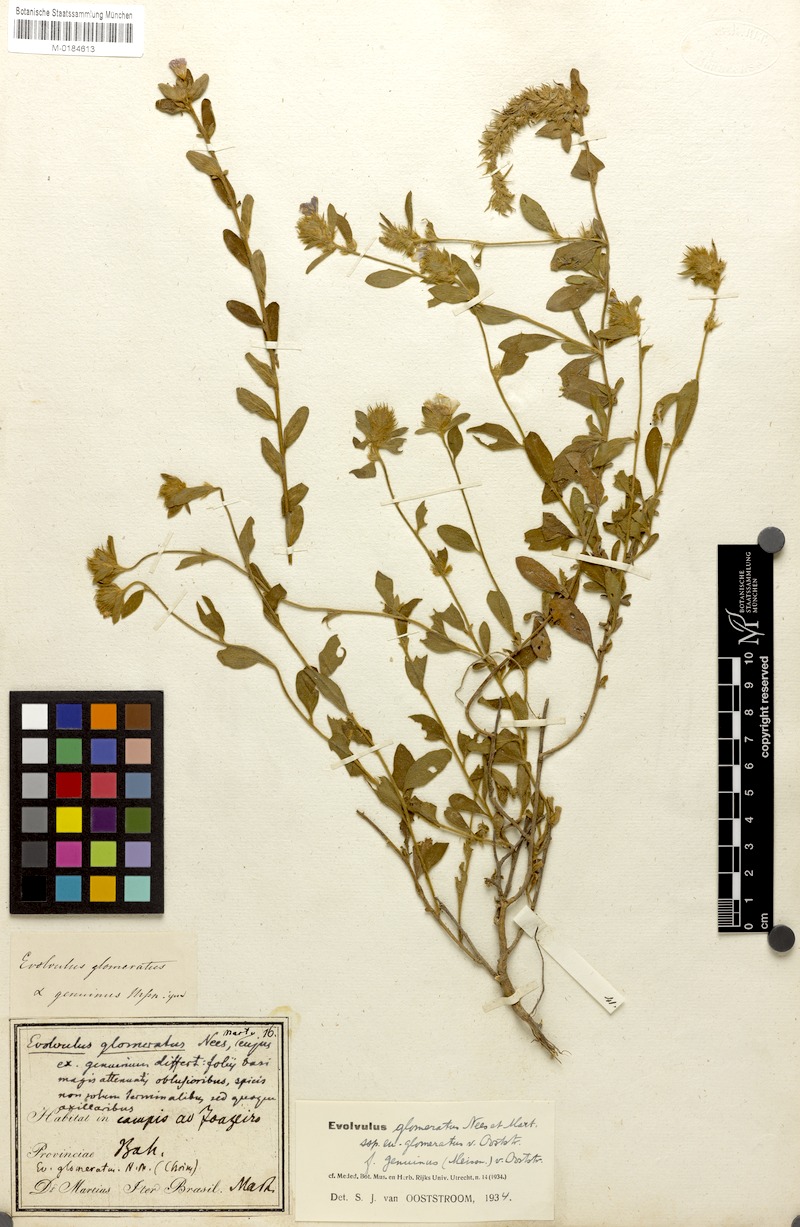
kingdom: Plantae
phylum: Tracheophyta
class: Magnoliopsida
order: Solanales
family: Convolvulaceae
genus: Evolvulus
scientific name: Evolvulus glomeratus
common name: Brazilian dwarf morning-glory
